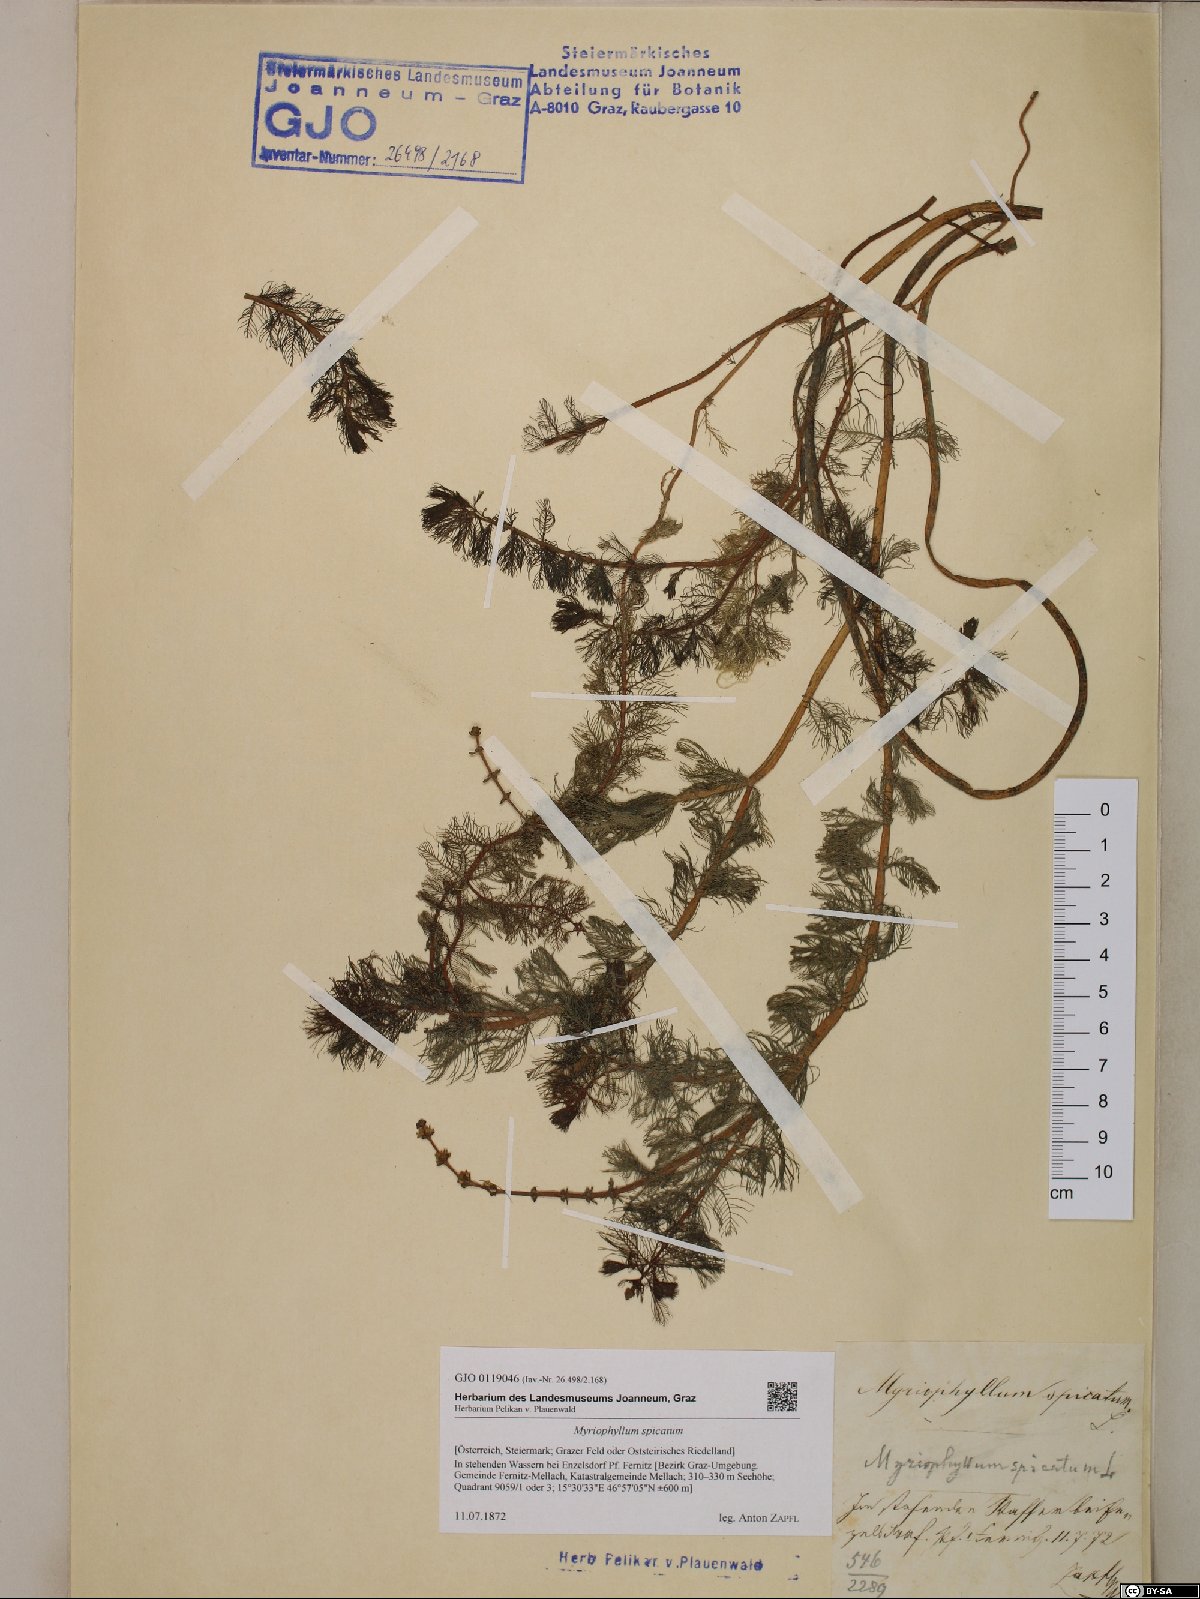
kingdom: Plantae
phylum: Tracheophyta
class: Magnoliopsida
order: Saxifragales
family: Haloragaceae
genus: Myriophyllum
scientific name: Myriophyllum spicatum
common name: Spiked water-milfoil
